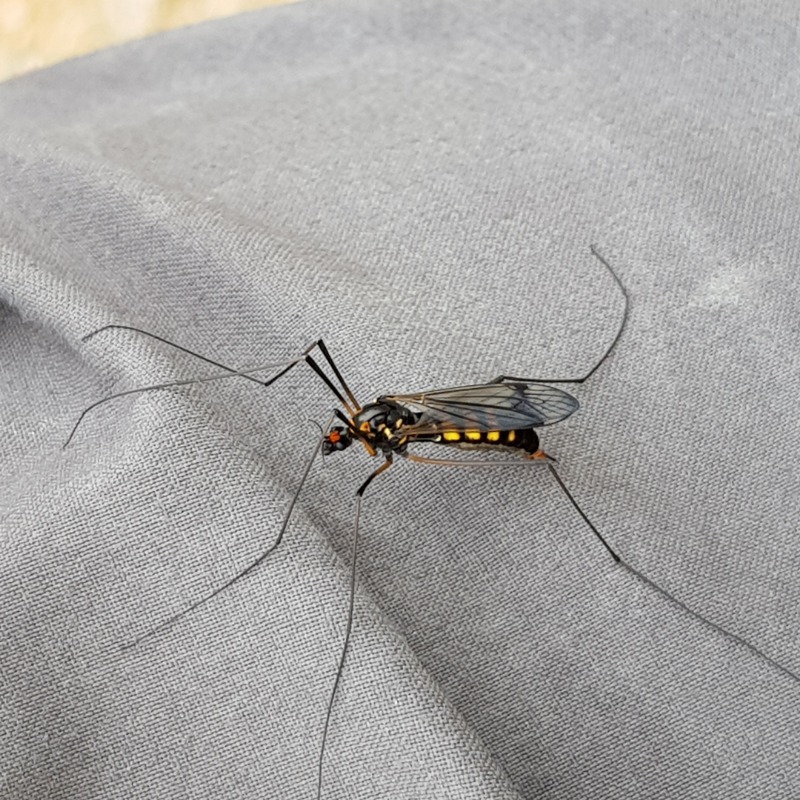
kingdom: Animalia
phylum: Arthropoda
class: Insecta
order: Diptera
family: Tipulidae
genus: Nephrotoma
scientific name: Nephrotoma crocata
